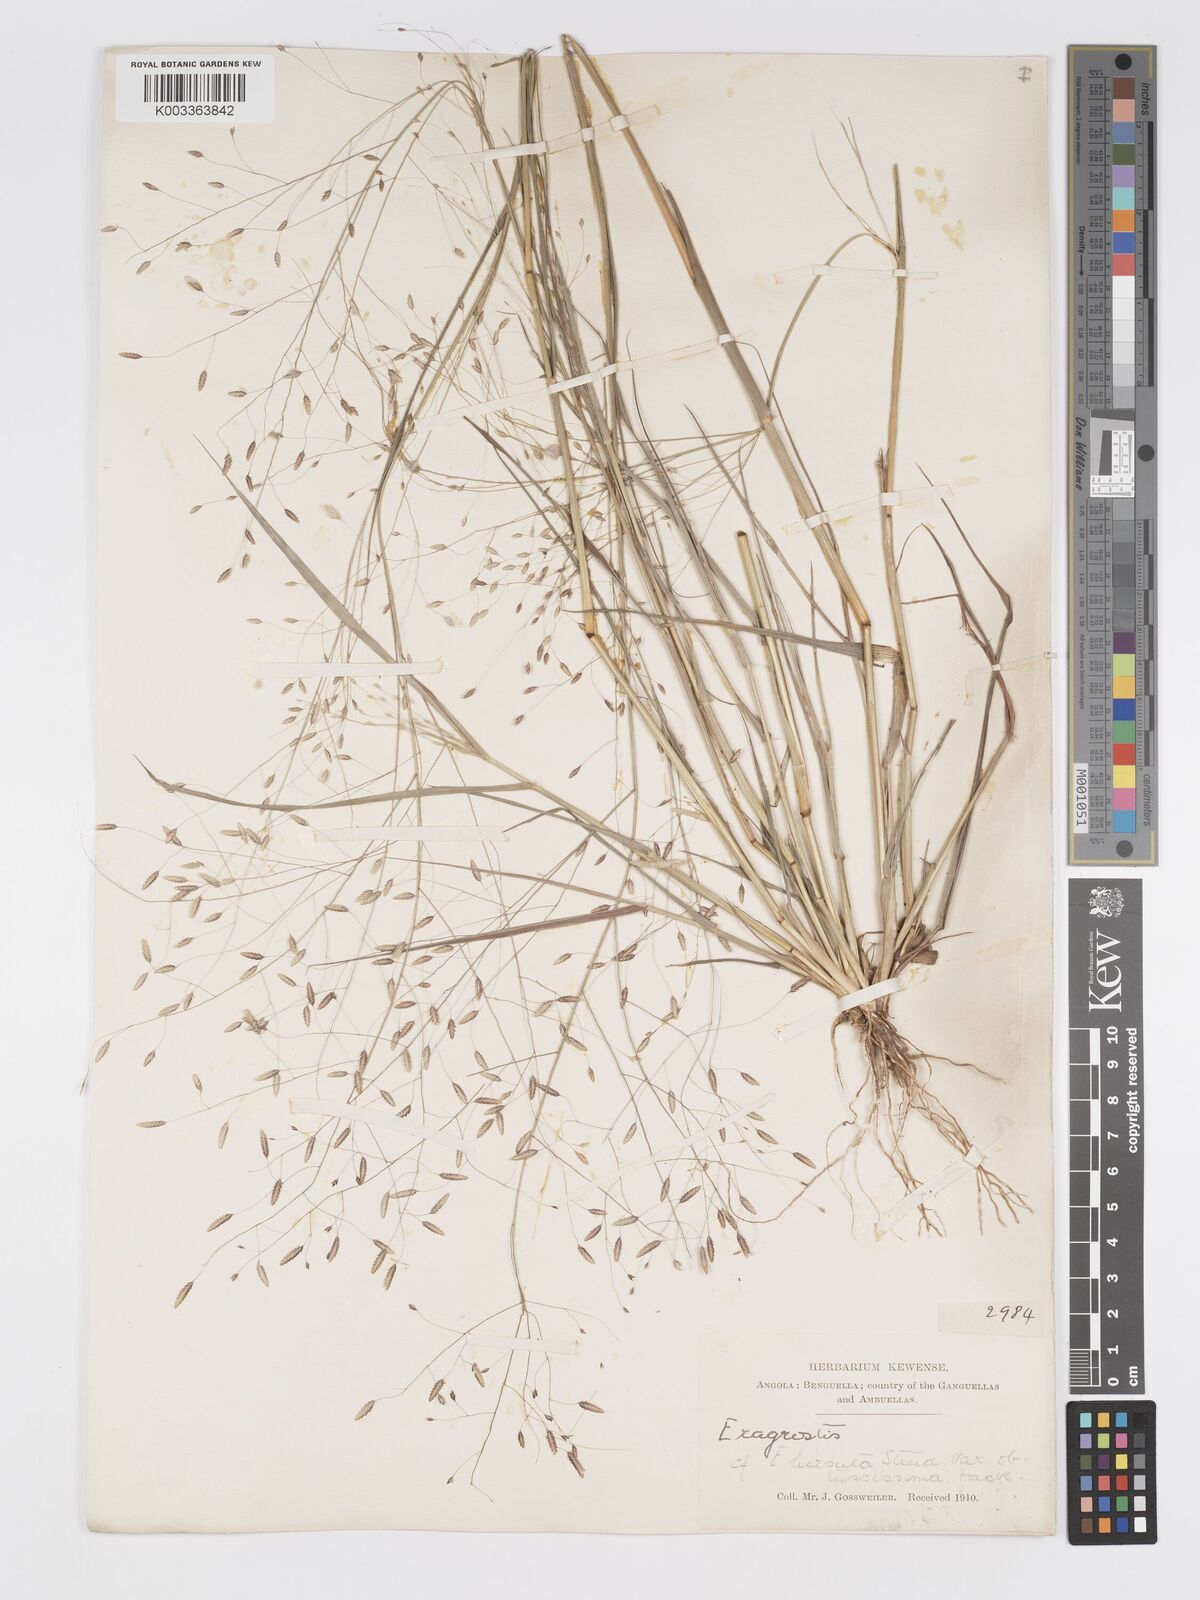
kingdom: Plantae
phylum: Tracheophyta
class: Liliopsida
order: Poales
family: Poaceae
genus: Eragrostis
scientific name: Eragrostis tremula
